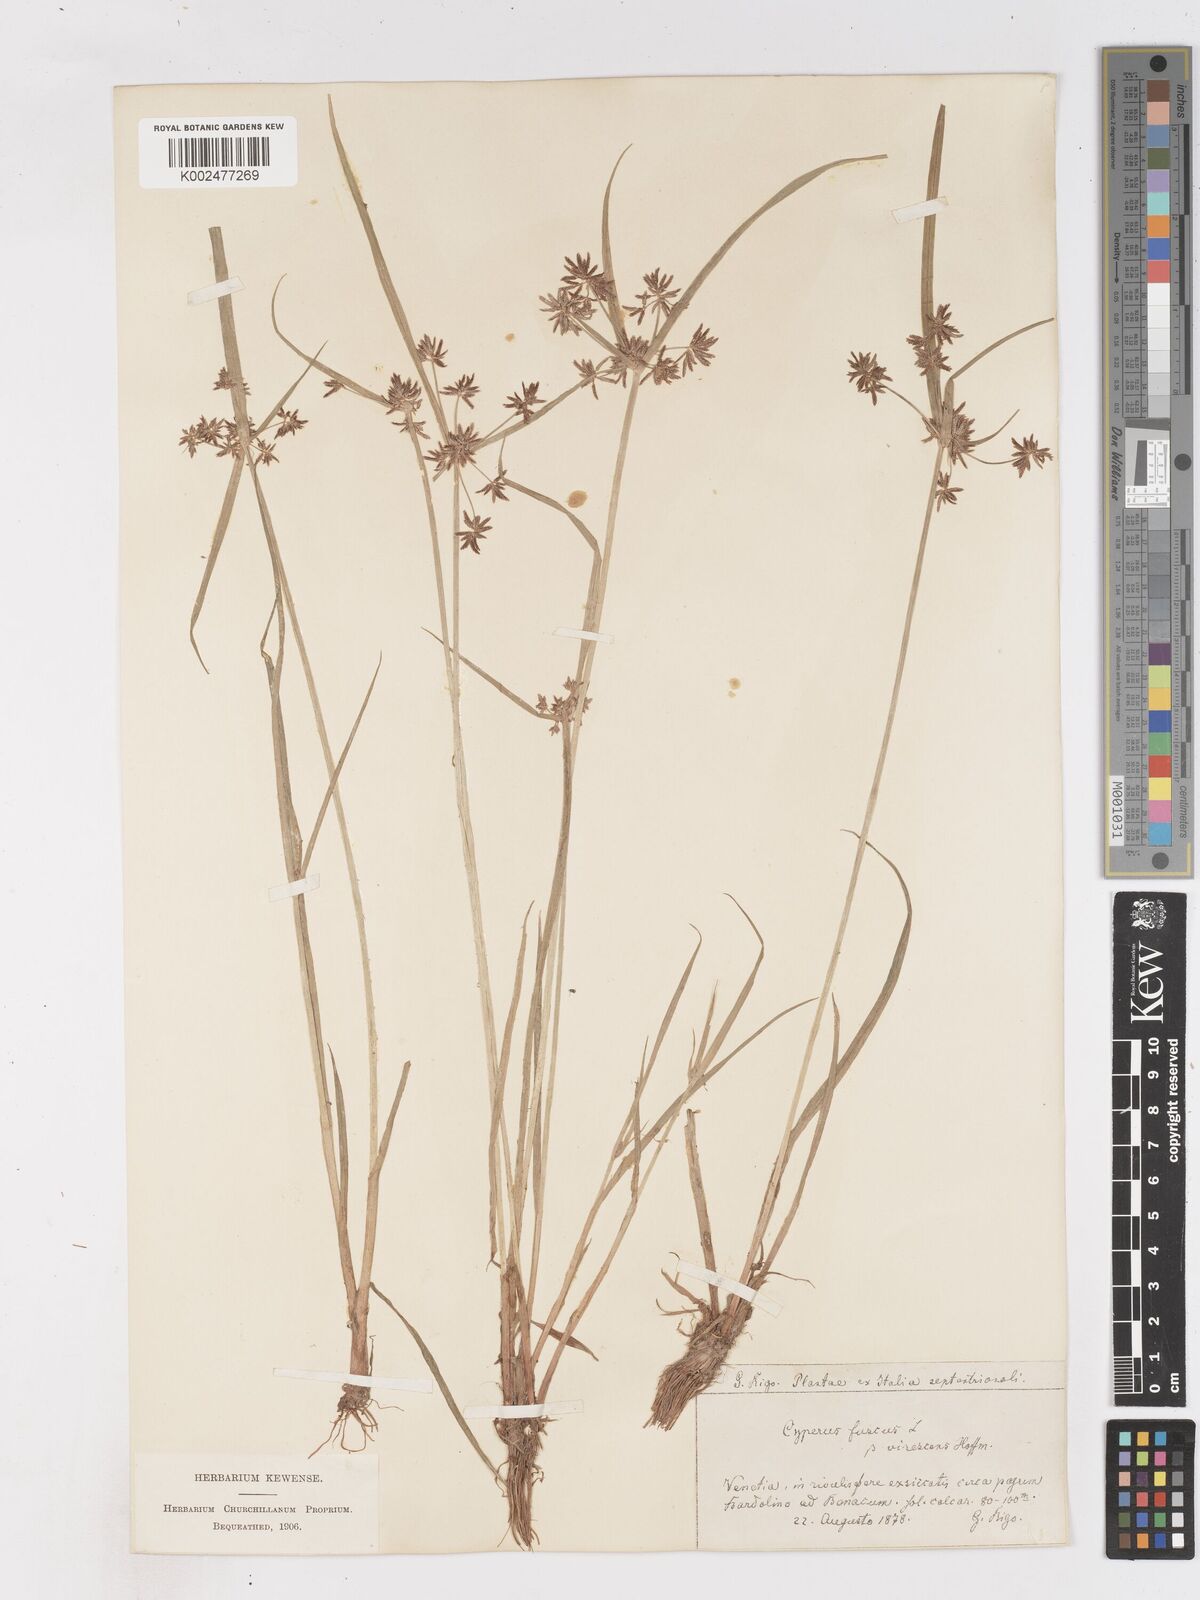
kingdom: Plantae
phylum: Tracheophyta
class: Liliopsida
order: Poales
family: Cyperaceae
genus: Cyperus
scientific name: Cyperus fuscus
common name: Brown galingale
